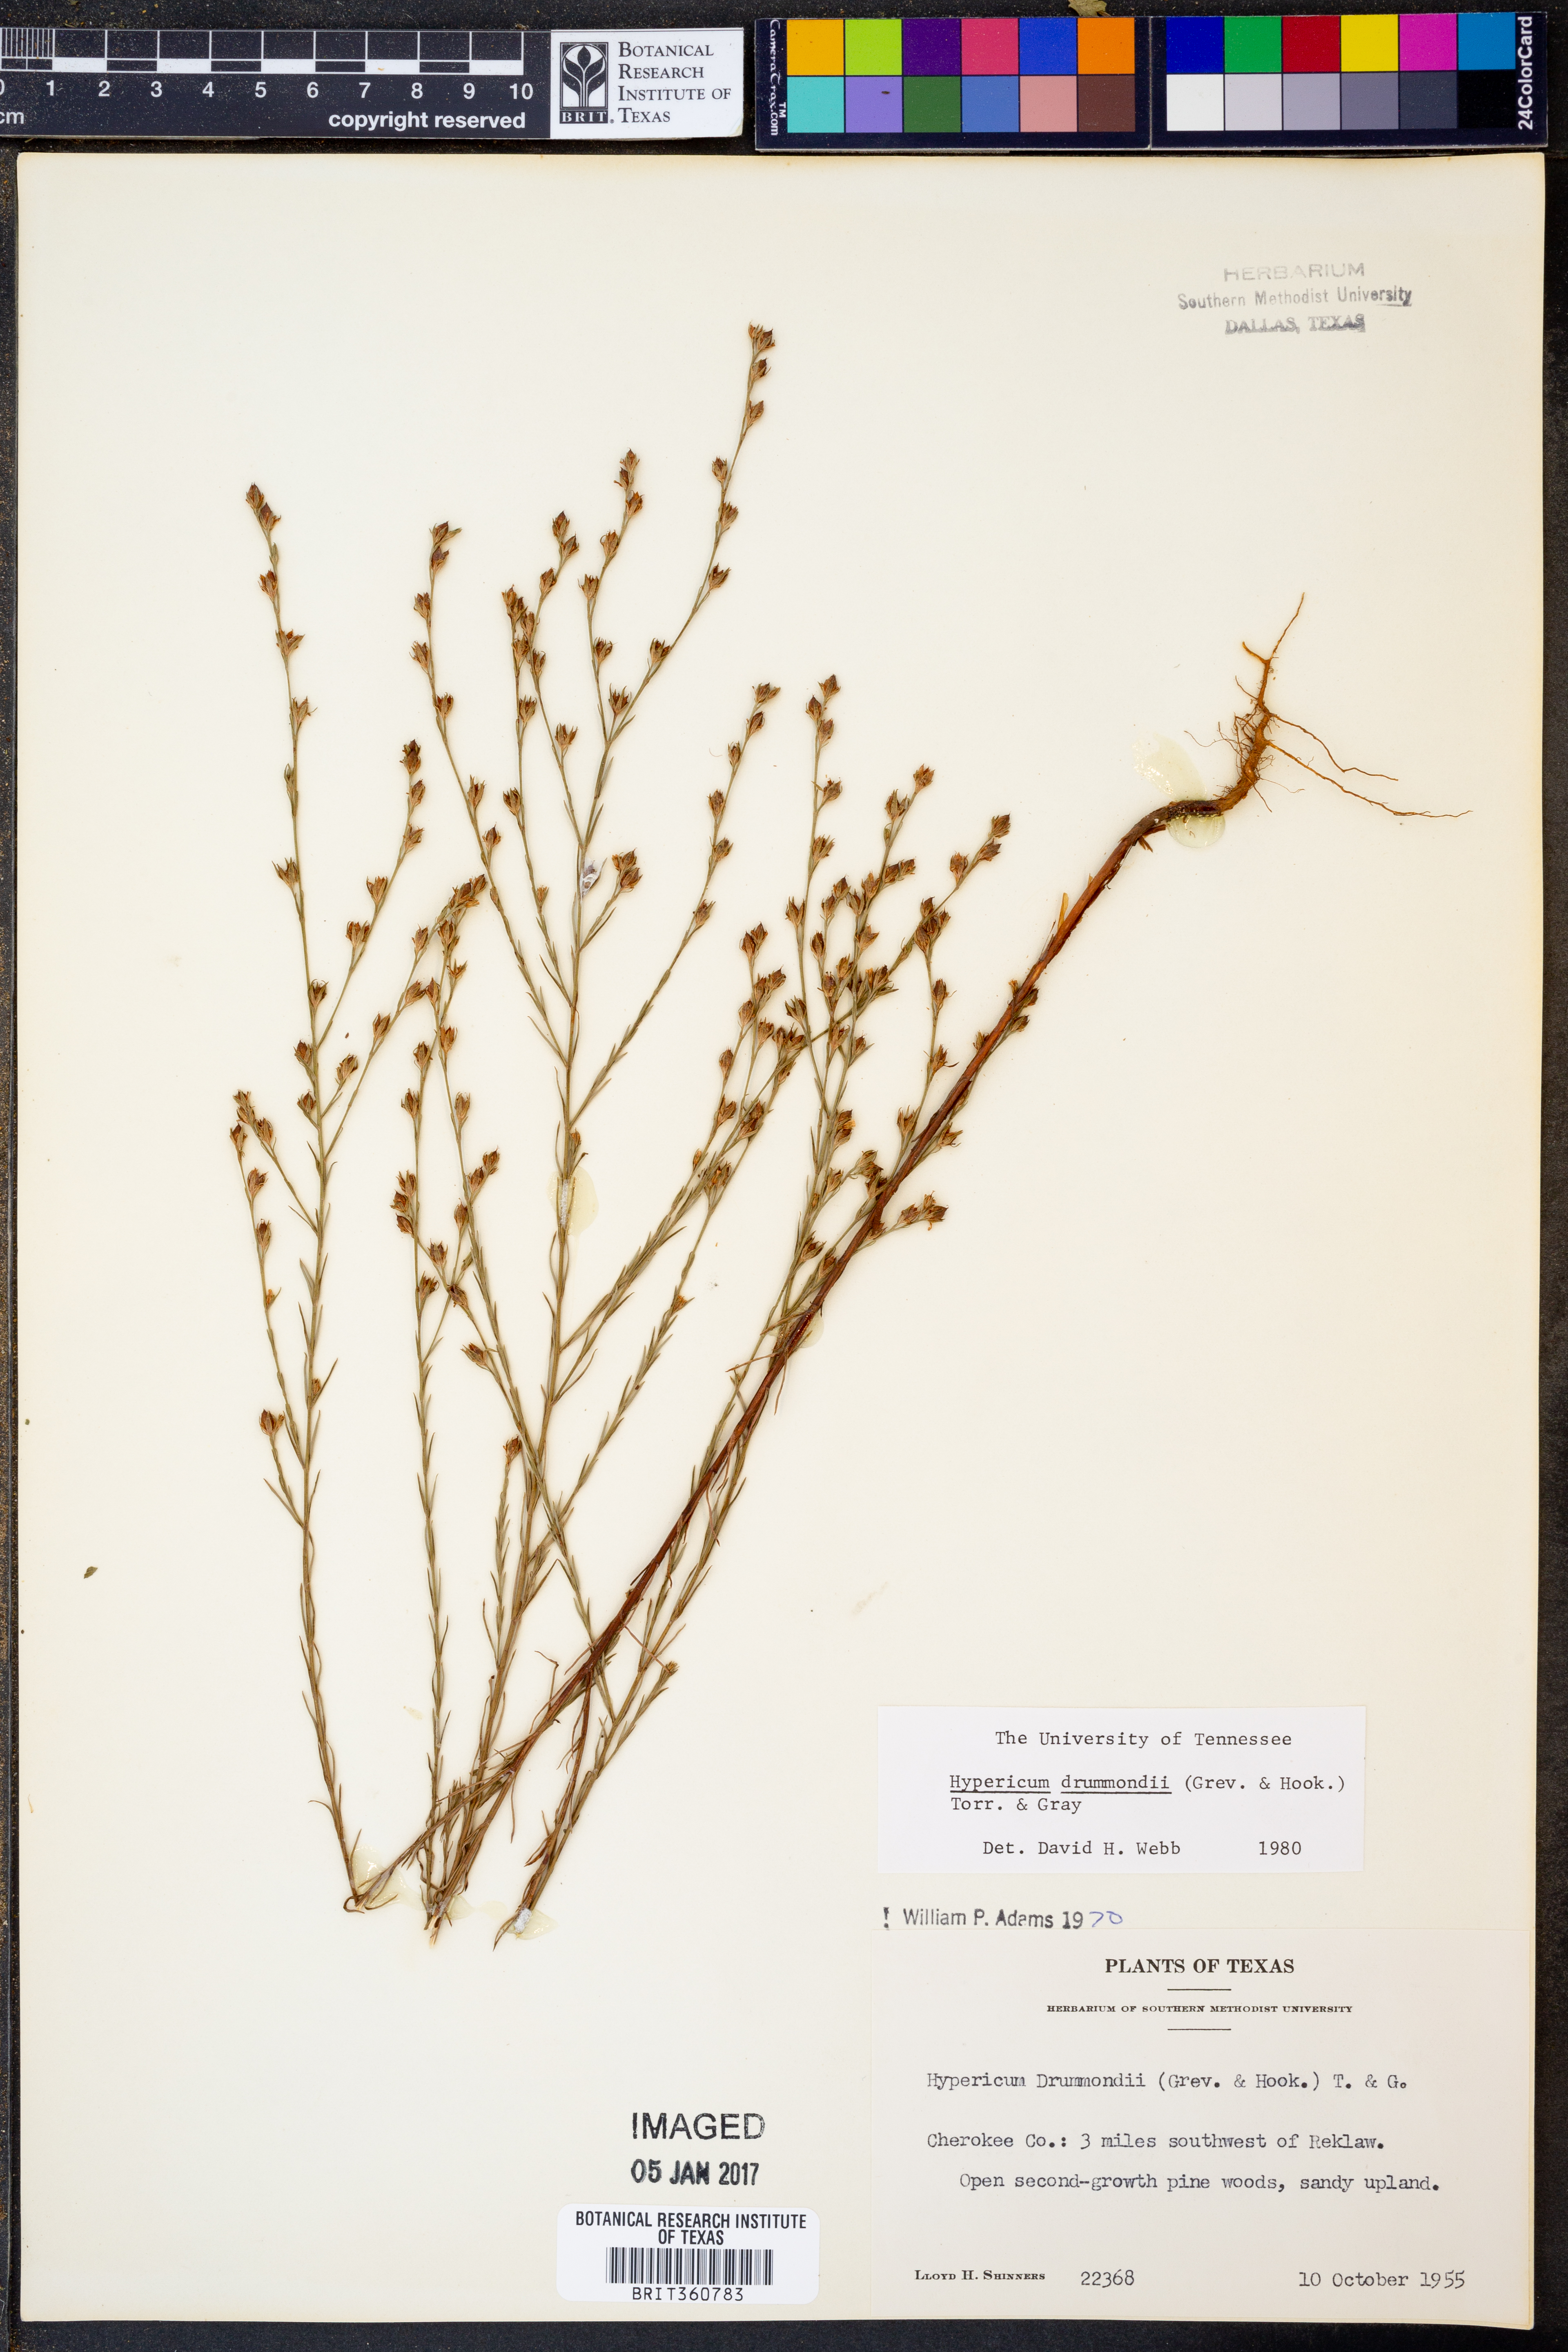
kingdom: Plantae
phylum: Tracheophyta
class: Magnoliopsida
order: Malpighiales
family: Hypericaceae
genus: Hypericum
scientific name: Hypericum drummondii
